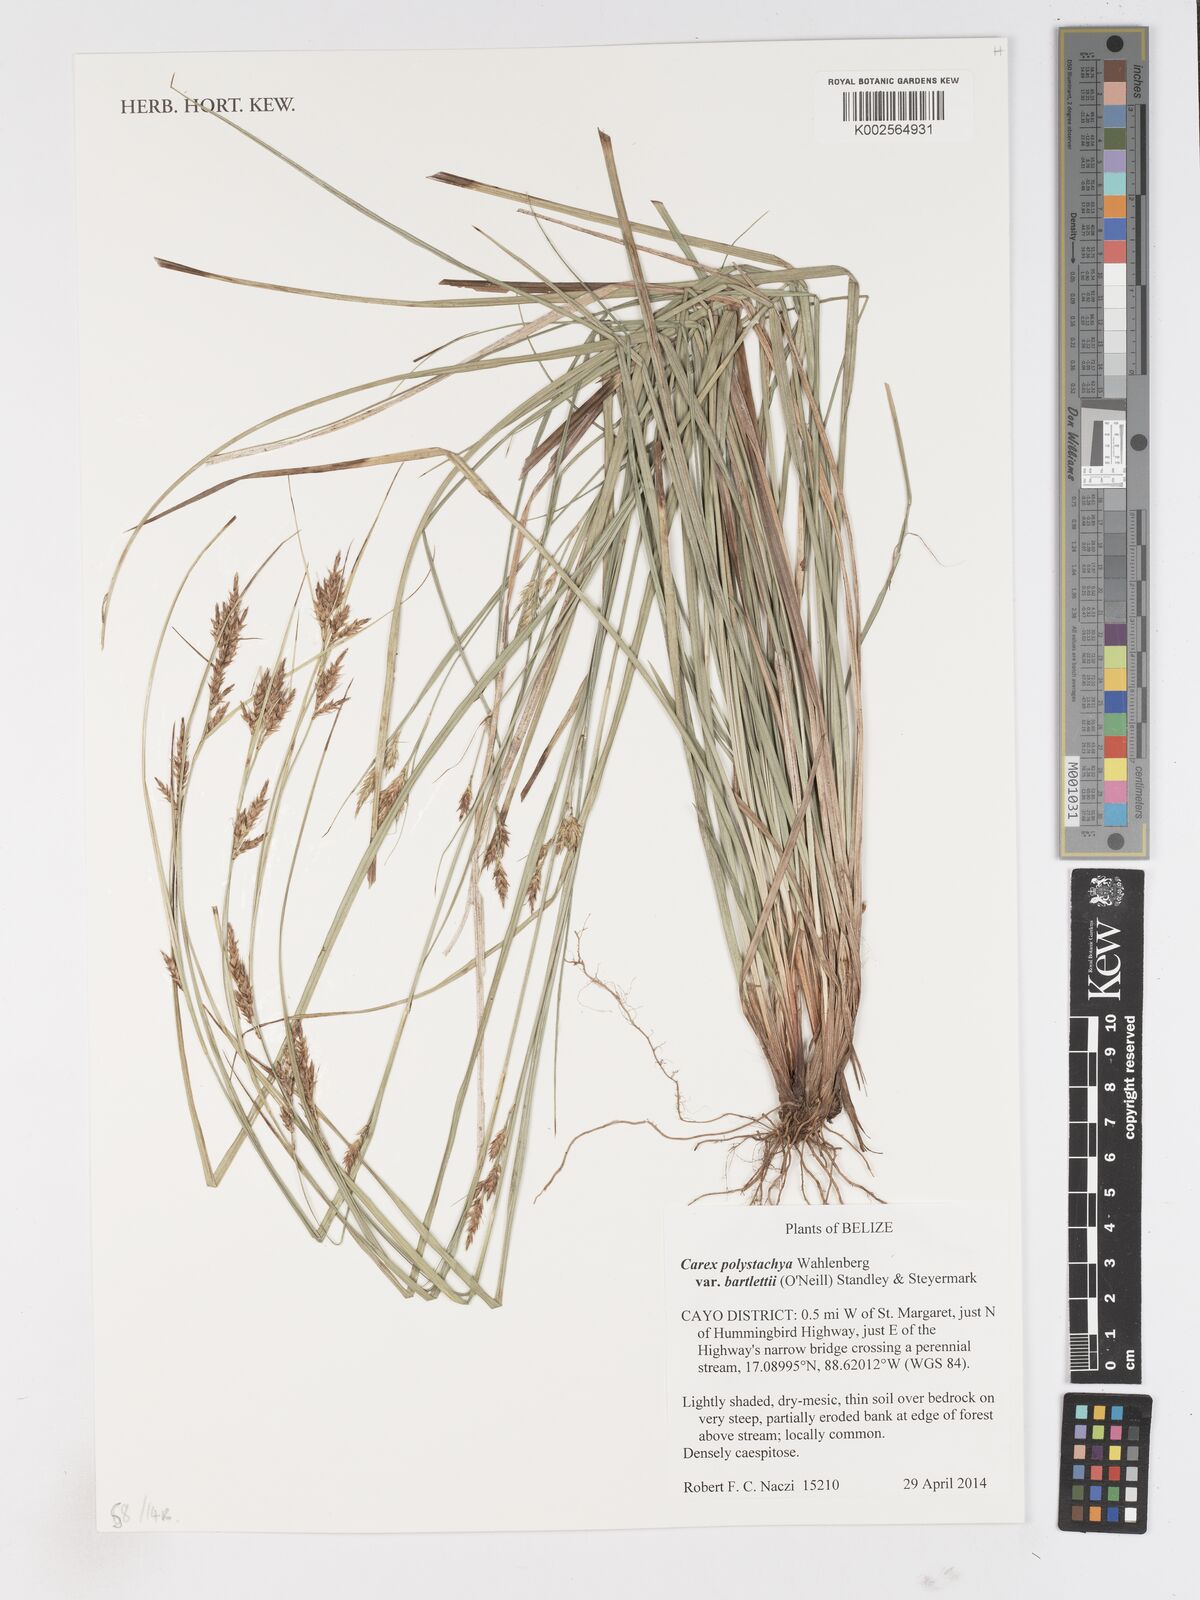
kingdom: Plantae
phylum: Tracheophyta
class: Liliopsida
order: Poales
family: Cyperaceae
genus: Carex
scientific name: Carex polystachya
